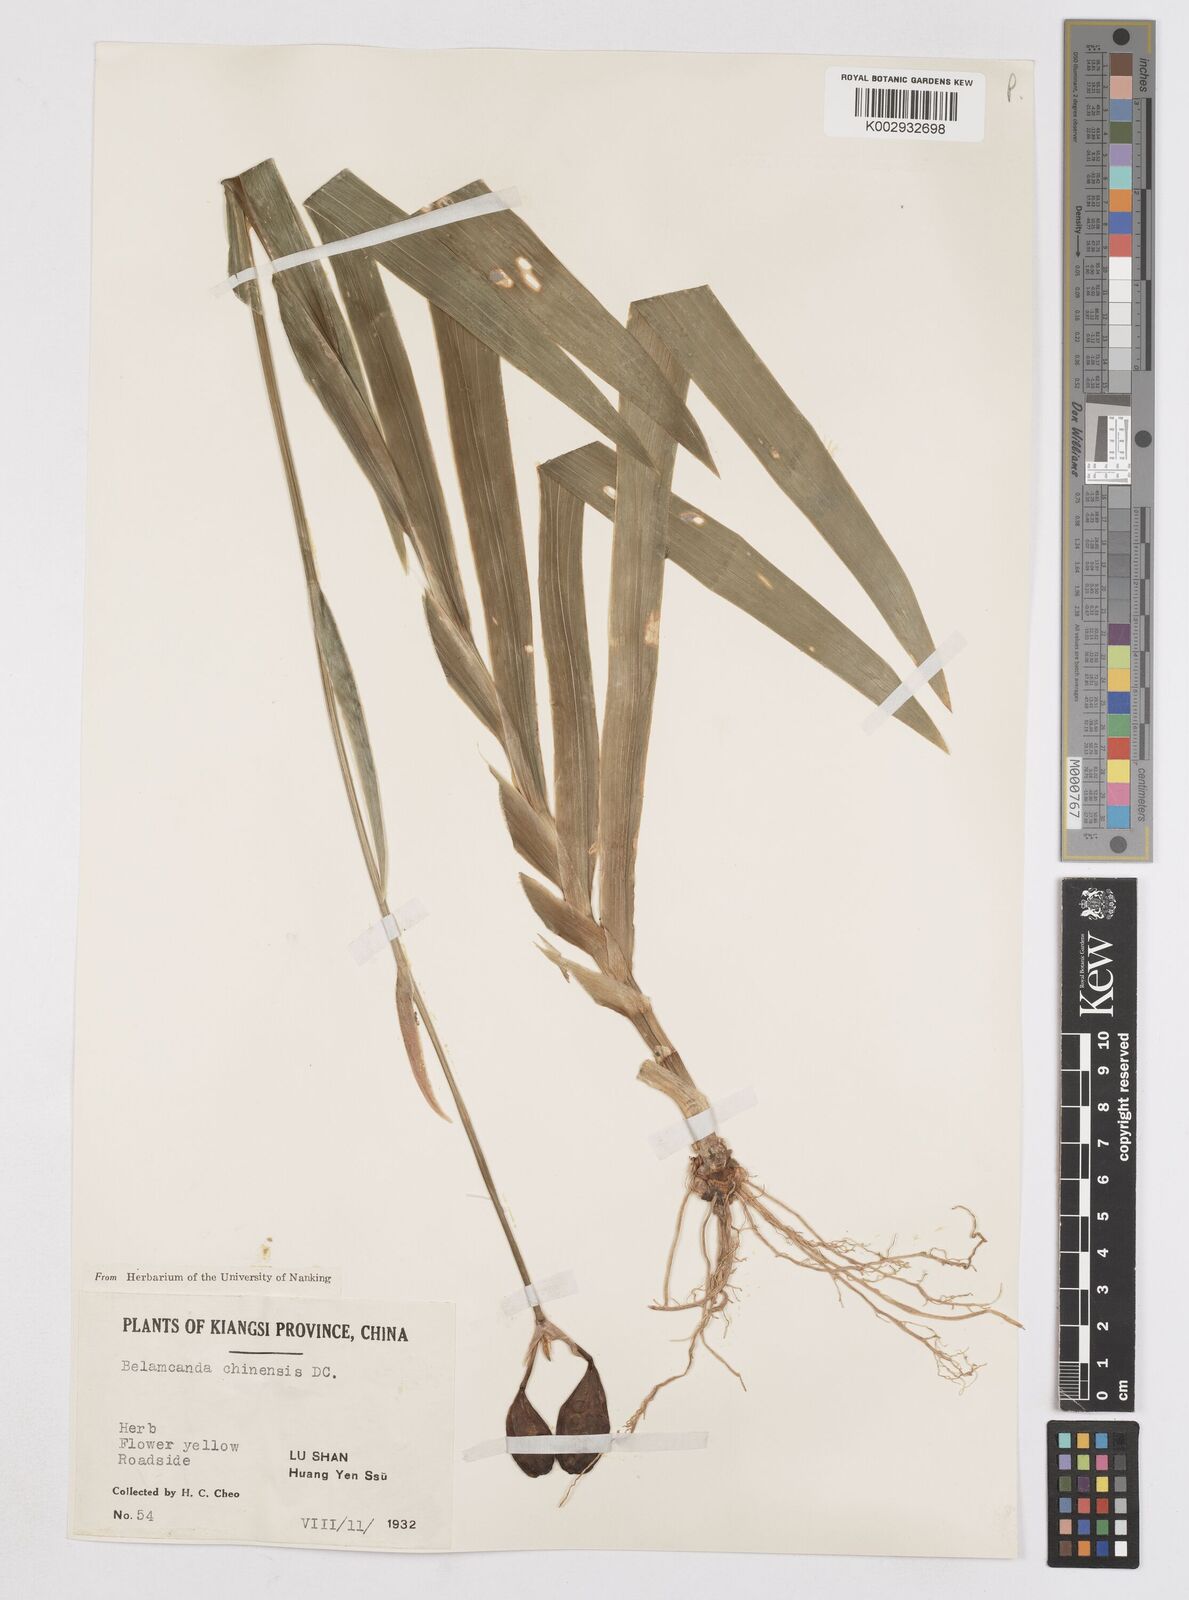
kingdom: Plantae
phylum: Tracheophyta
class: Liliopsida
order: Asparagales
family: Iridaceae
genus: Iris
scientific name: Iris
